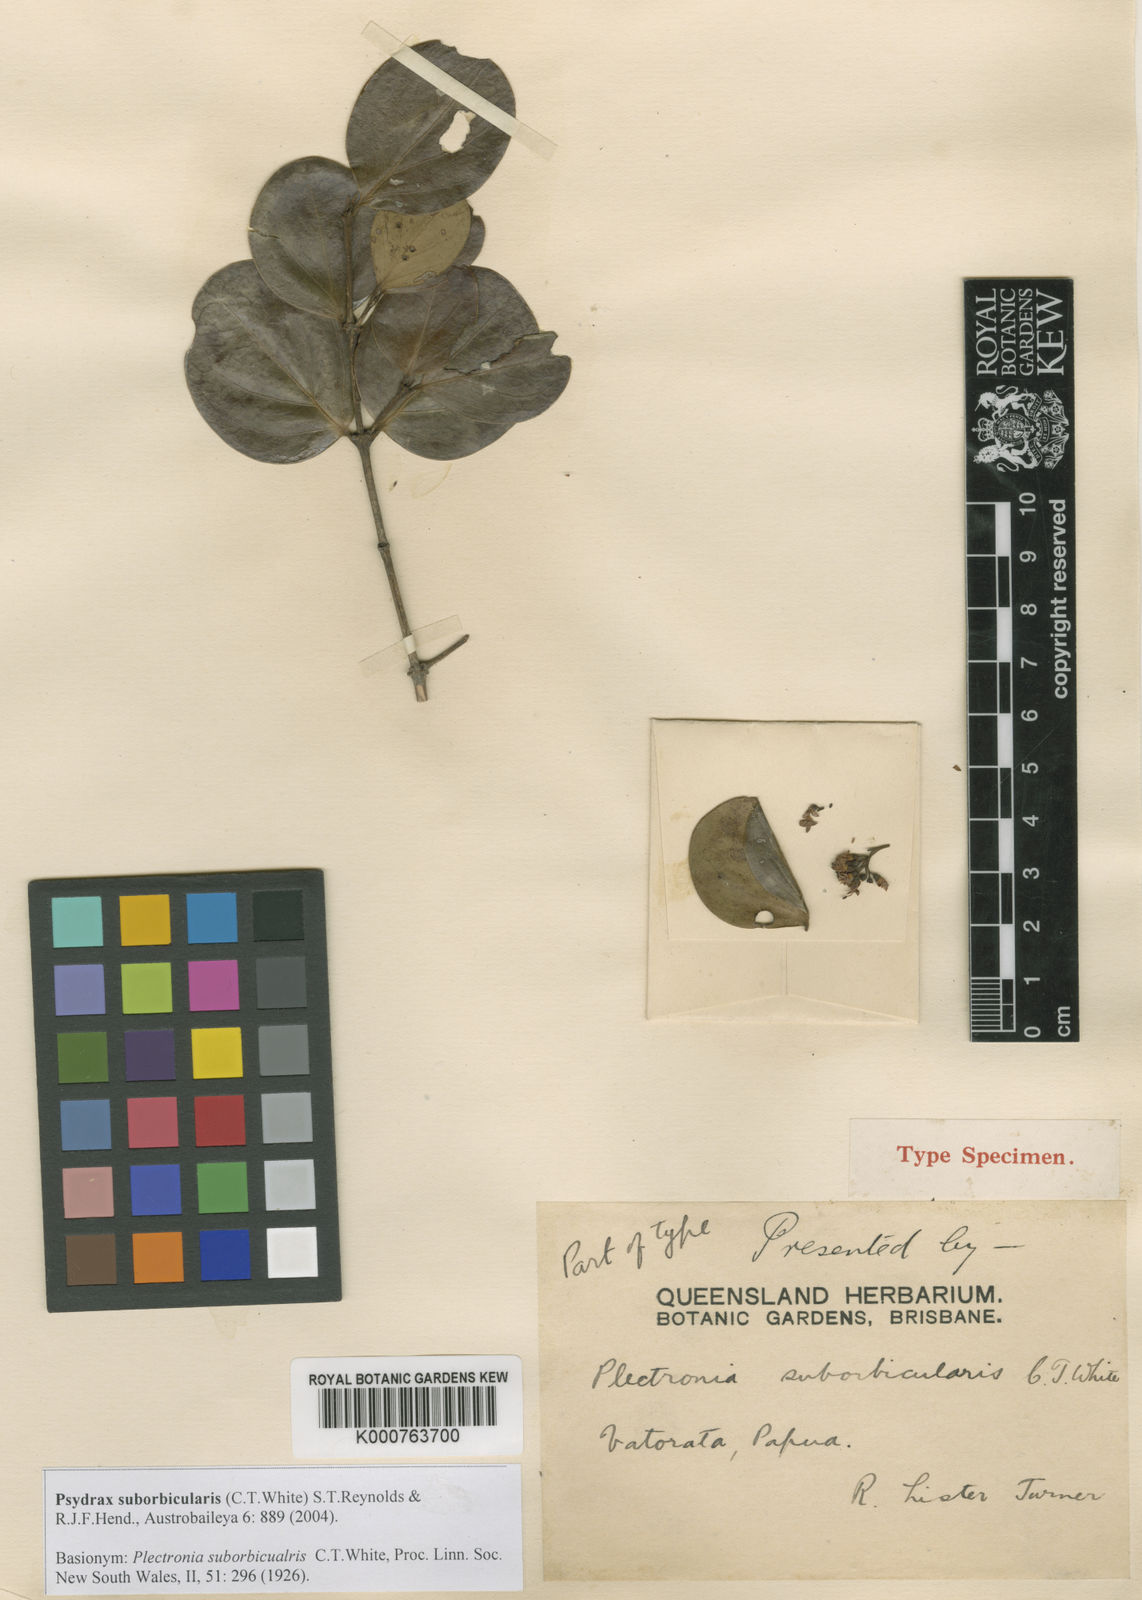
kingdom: Plantae
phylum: Tracheophyta
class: Magnoliopsida
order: Gentianales
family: Rubiaceae
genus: Psydrax
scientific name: Psydrax suborbicularis
